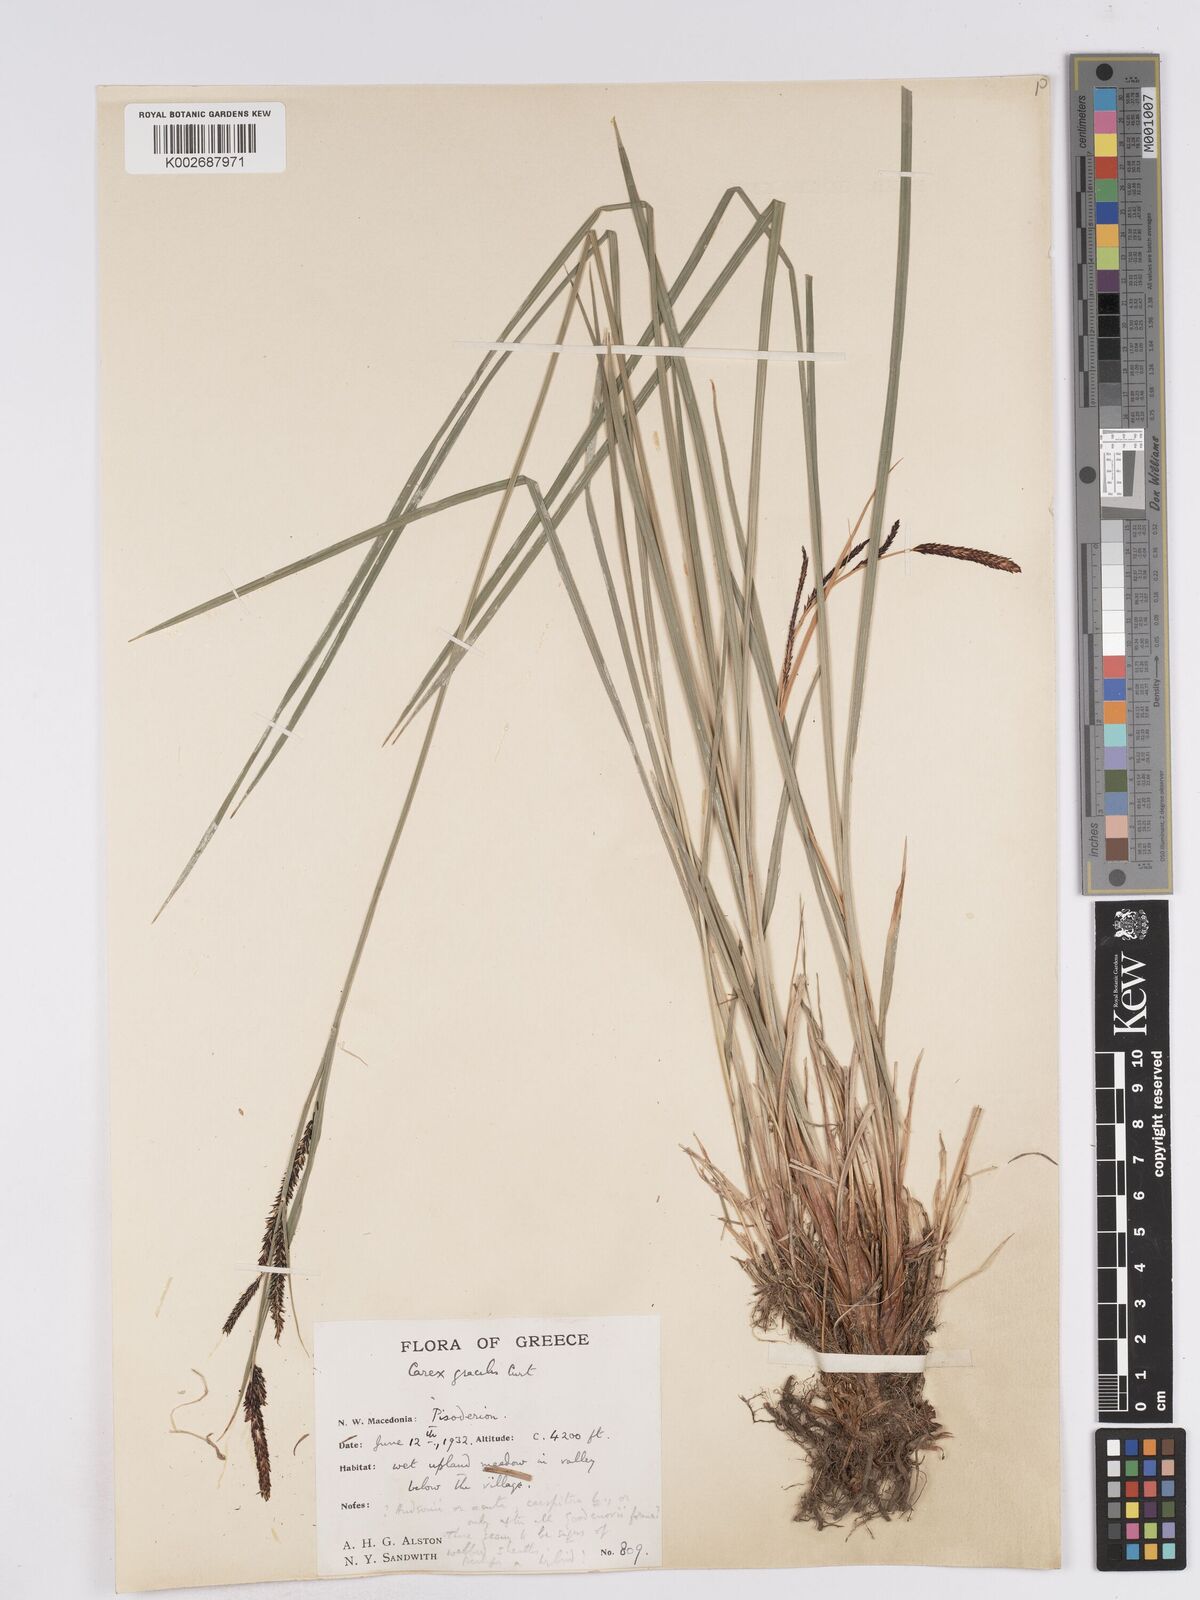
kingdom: Plantae
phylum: Tracheophyta
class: Liliopsida
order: Poales
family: Cyperaceae
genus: Carex
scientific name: Carex acuta
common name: Slender tufted-sedge
